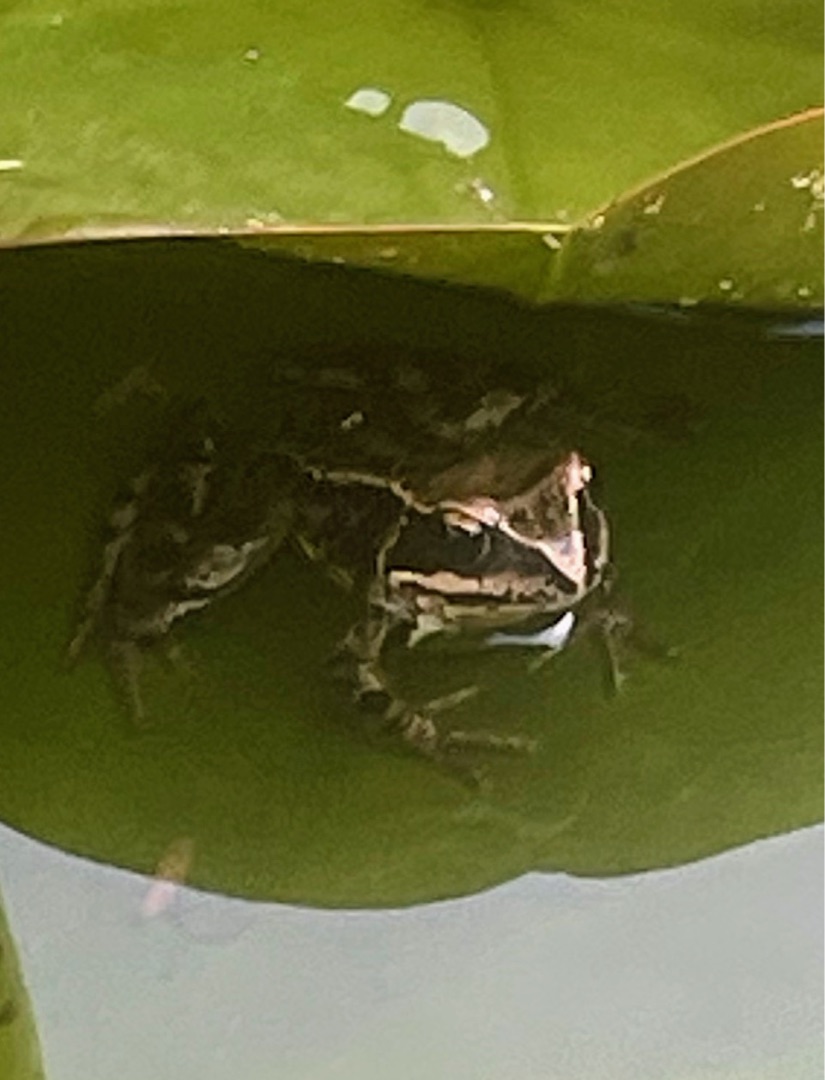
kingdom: Animalia
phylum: Chordata
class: Amphibia
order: Anura
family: Ranidae
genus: Rana
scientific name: Rana temporaria
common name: Butsnudet frø
